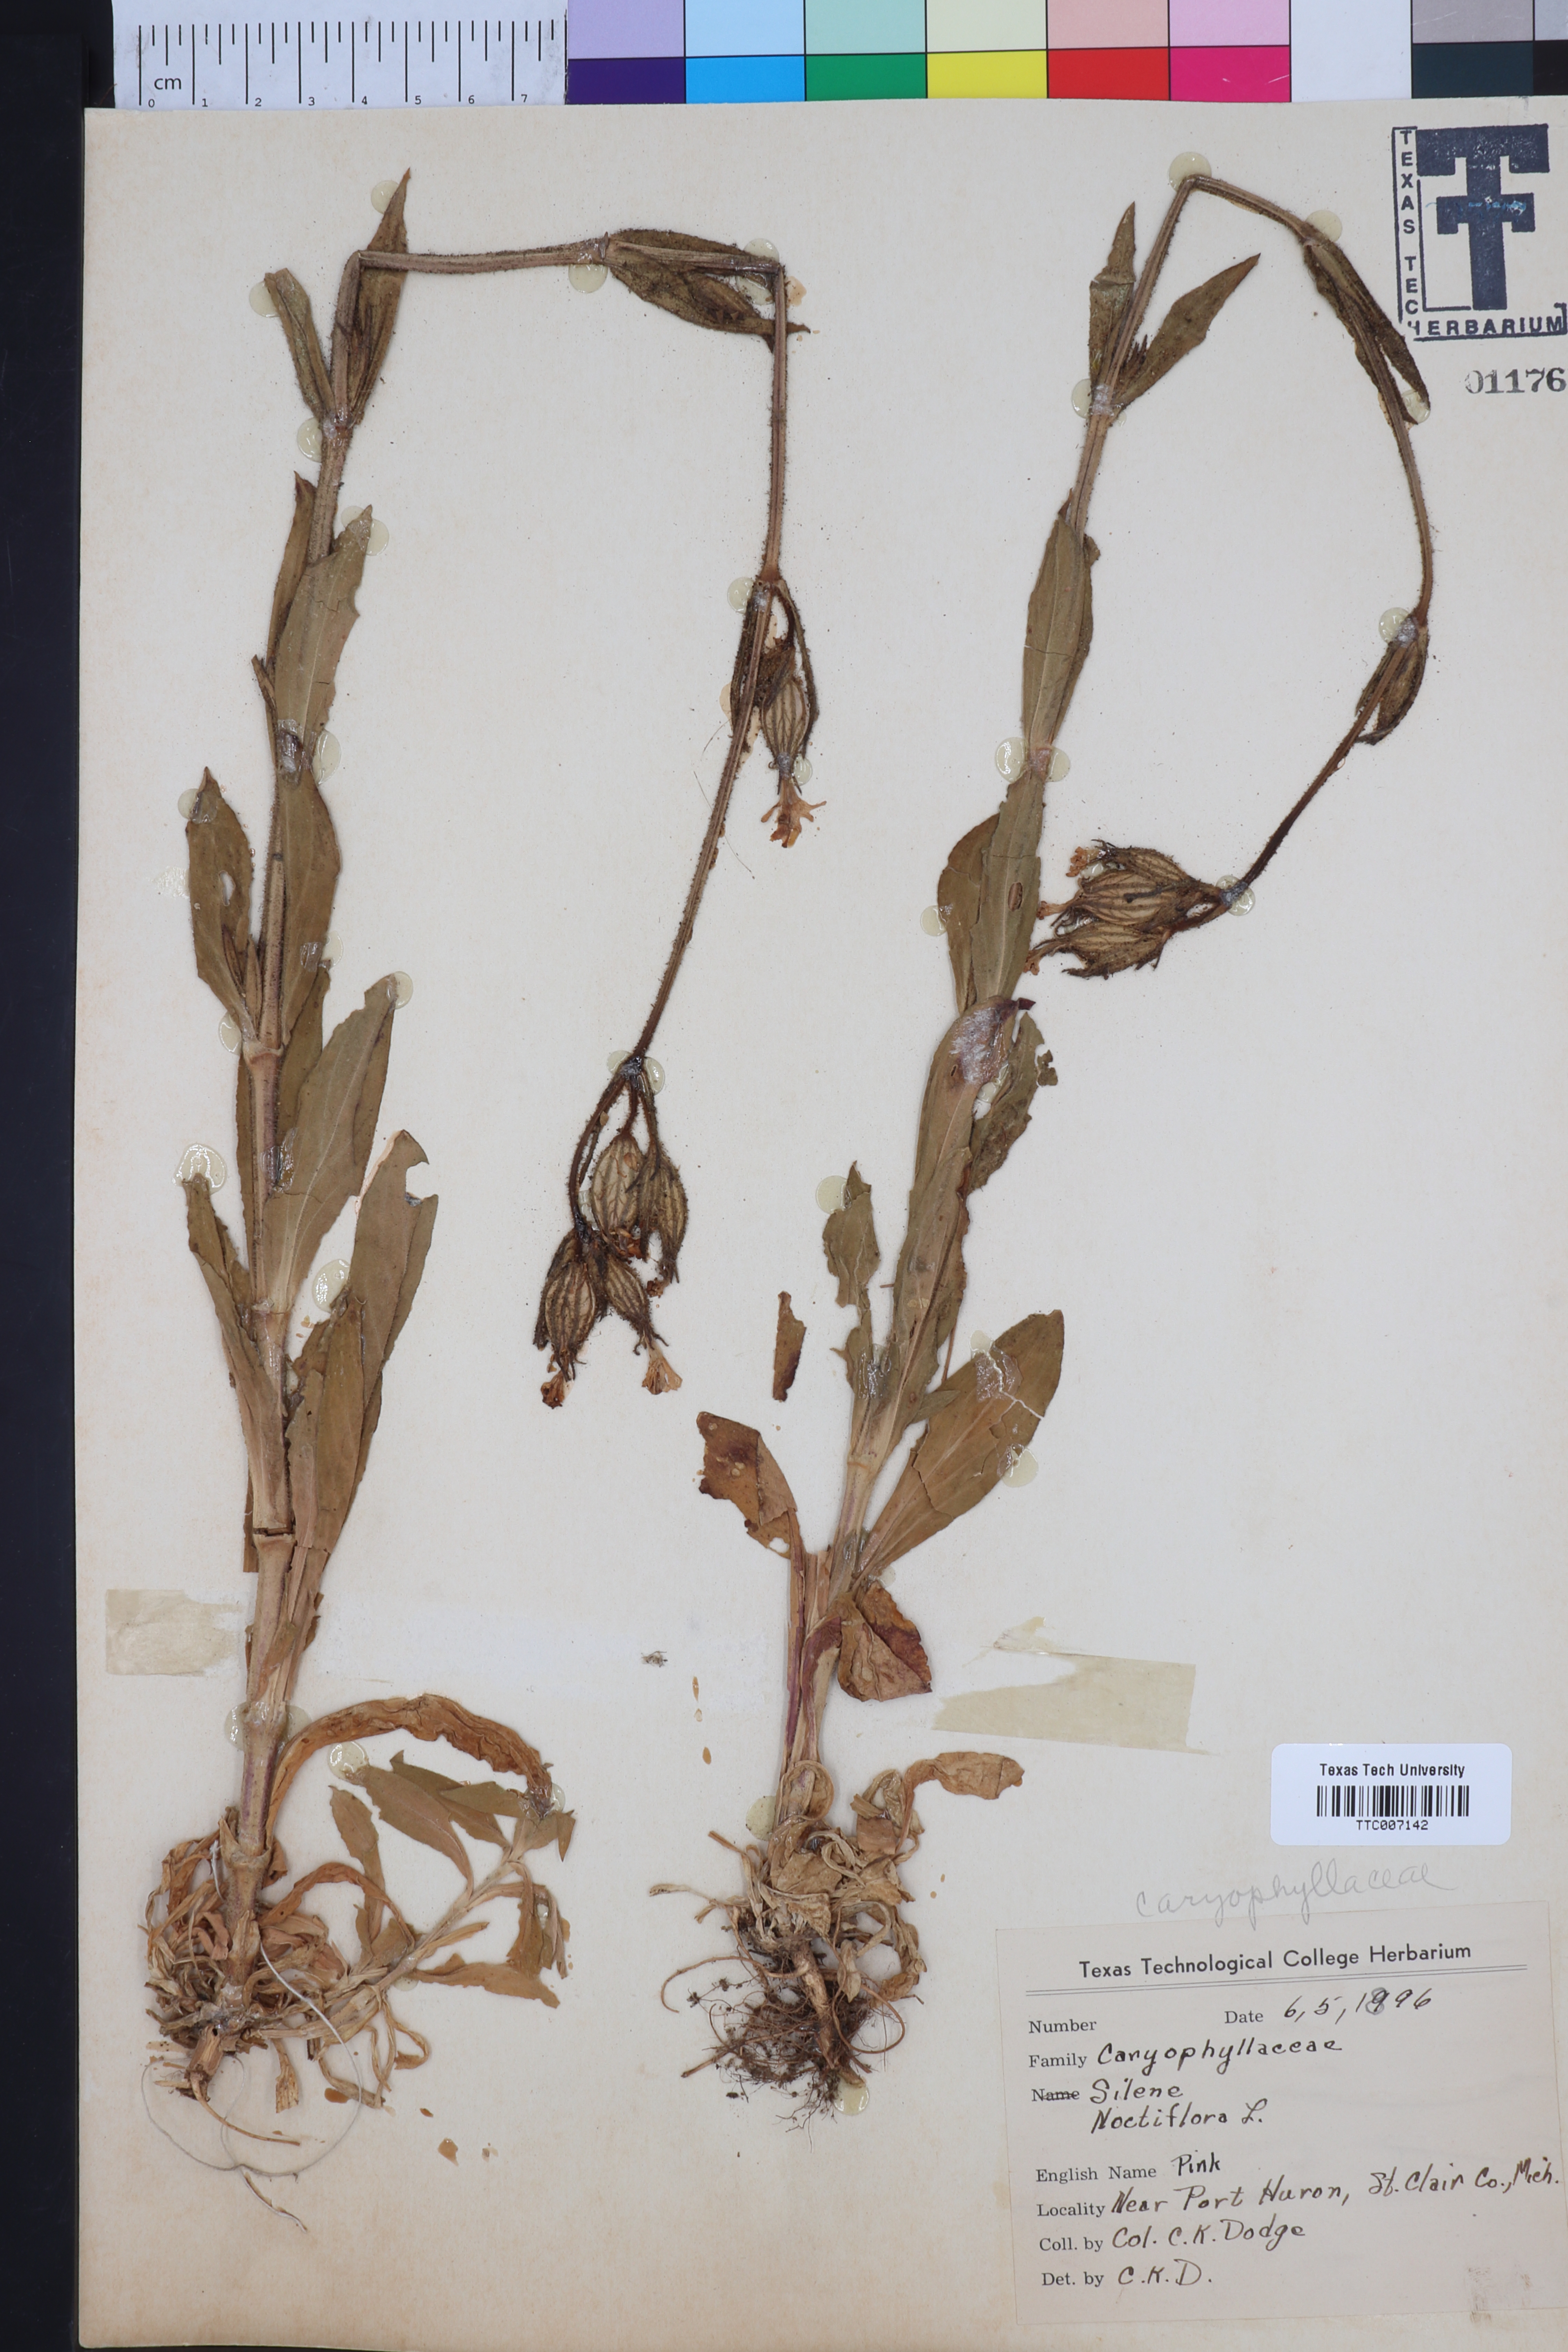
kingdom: Plantae
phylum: Tracheophyta
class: Magnoliopsida
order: Caryophyllales
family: Caryophyllaceae
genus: Silene
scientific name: Silene noctiflora
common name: Night-flowering catchfly
